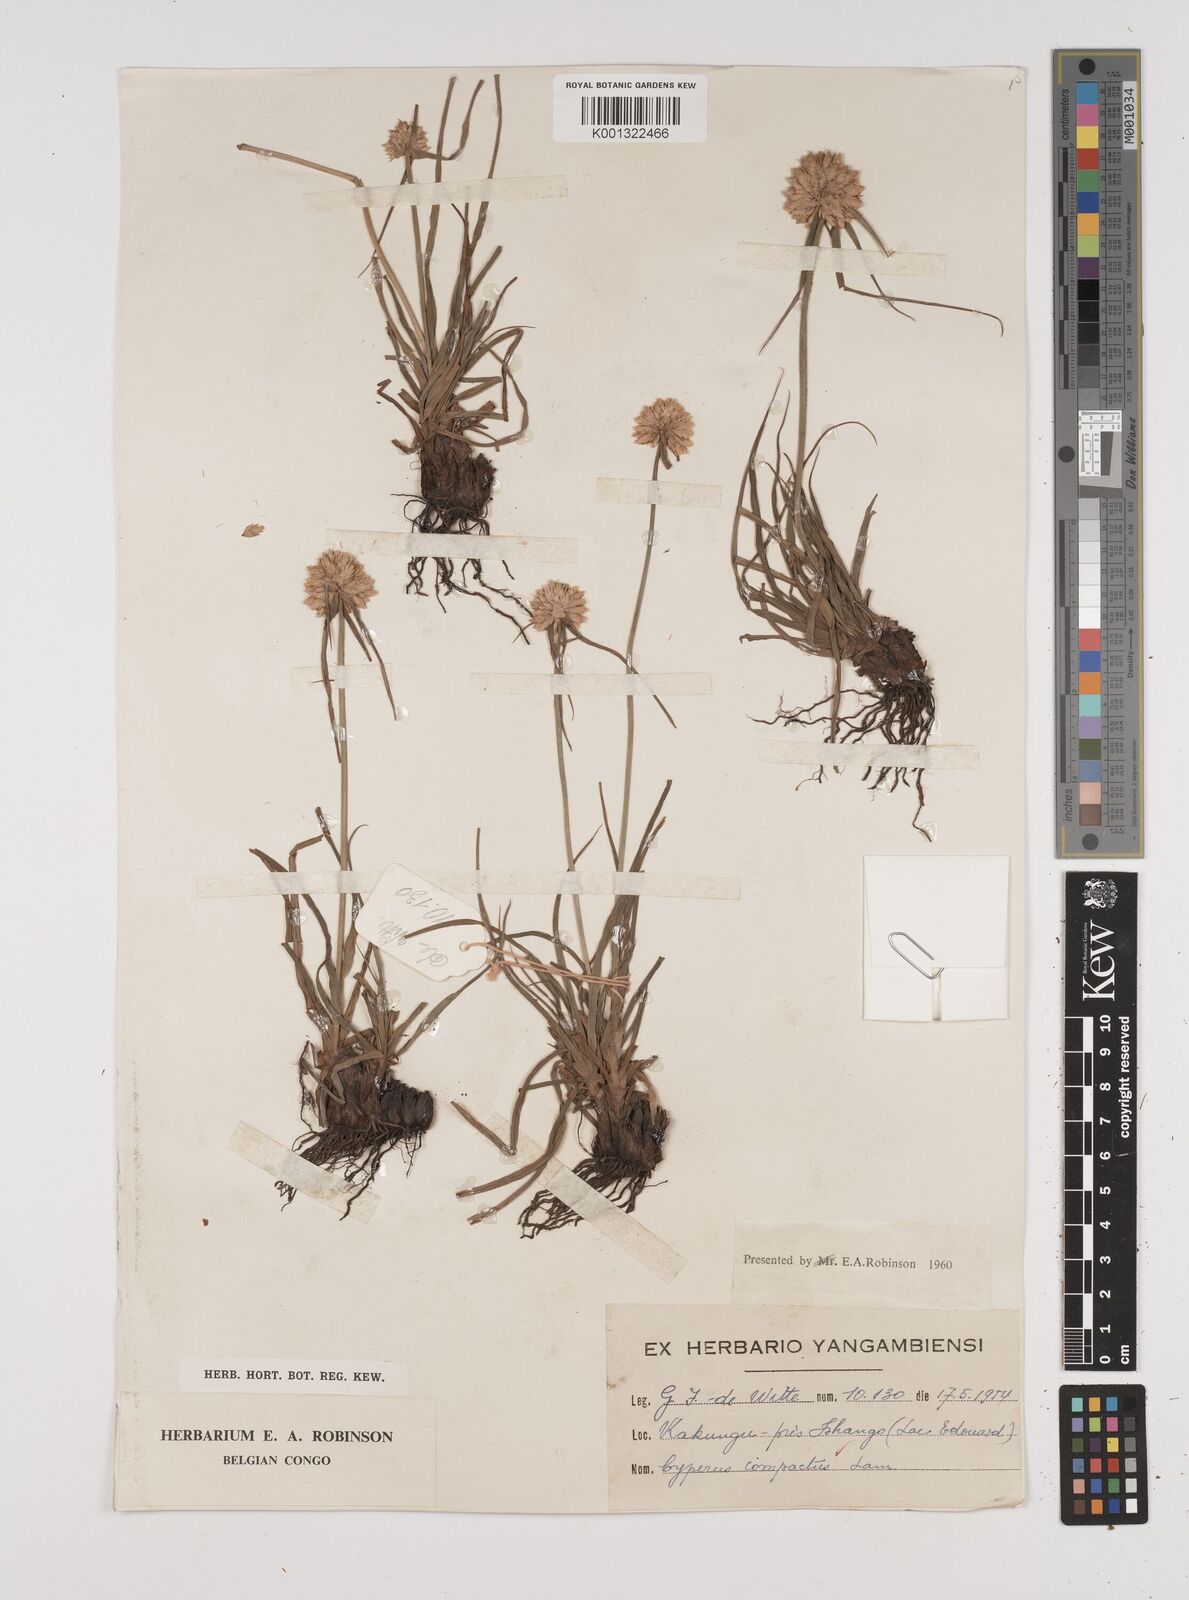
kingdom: Plantae
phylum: Tracheophyta
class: Liliopsida
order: Poales
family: Cyperaceae
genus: Cyperus
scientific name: Cyperus niveus
